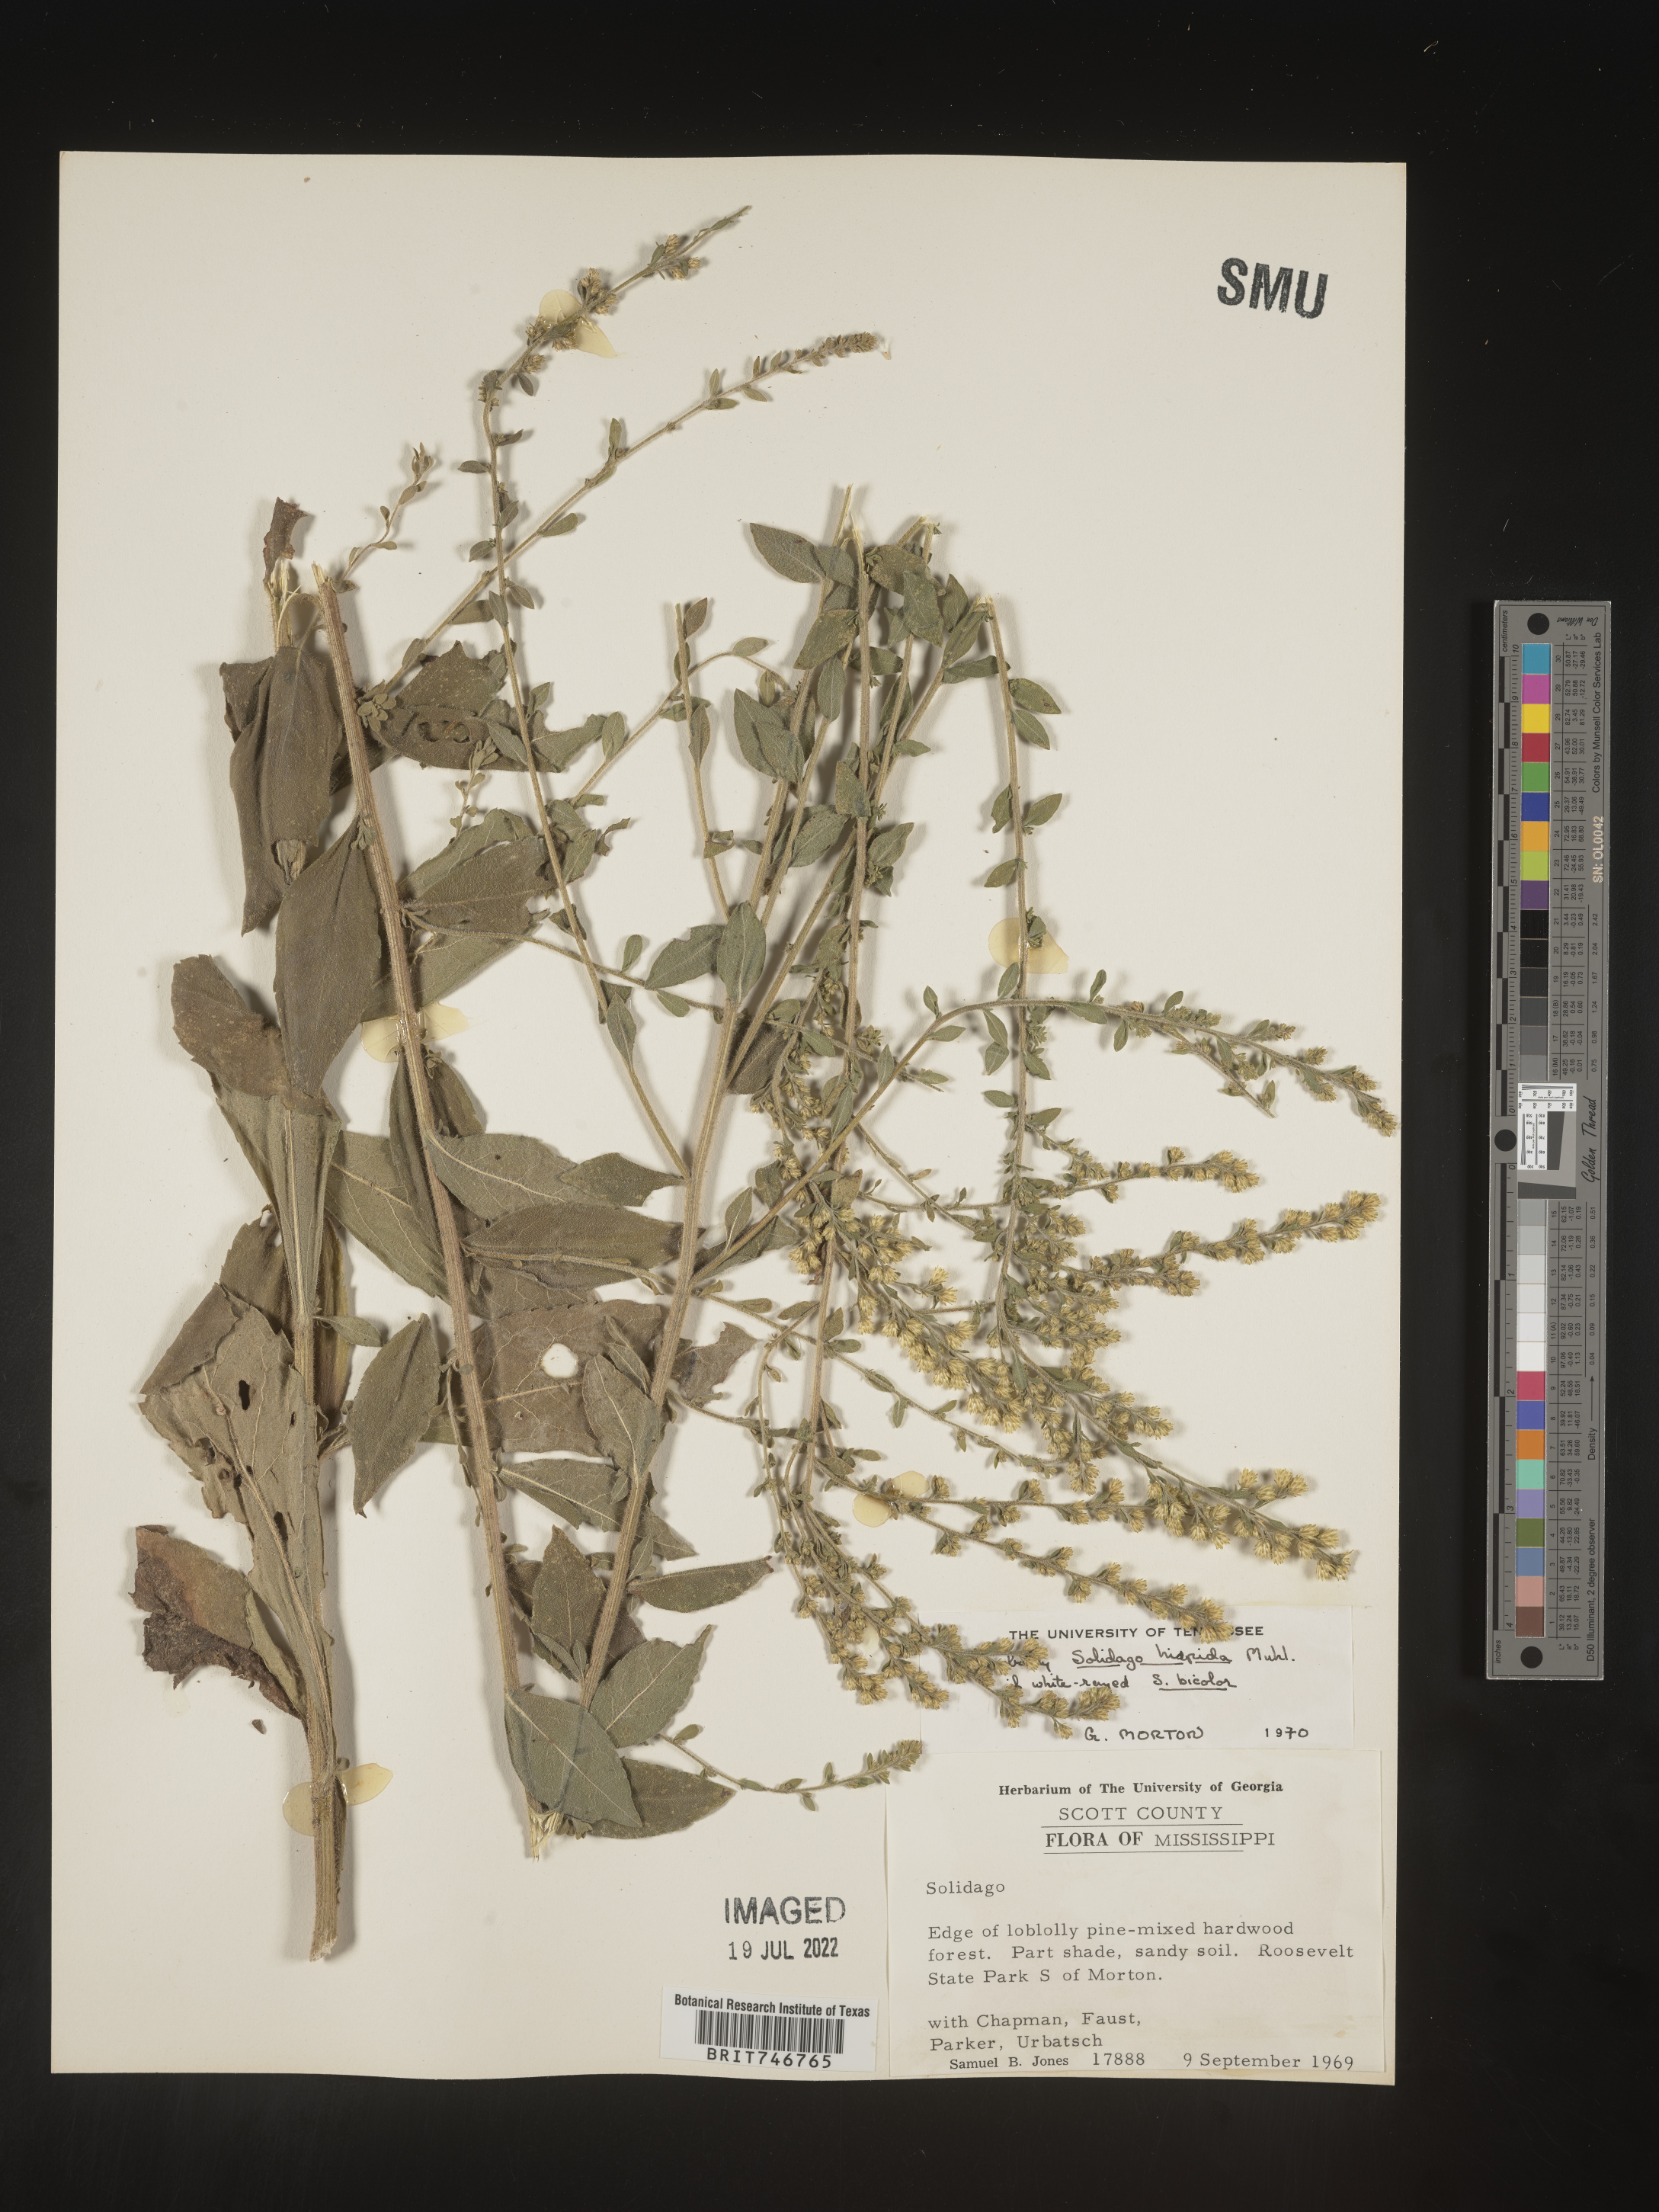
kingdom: Plantae
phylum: Tracheophyta
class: Magnoliopsida
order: Asterales
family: Asteraceae
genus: Solidago
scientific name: Solidago hispida
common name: Hairy goldenrod
